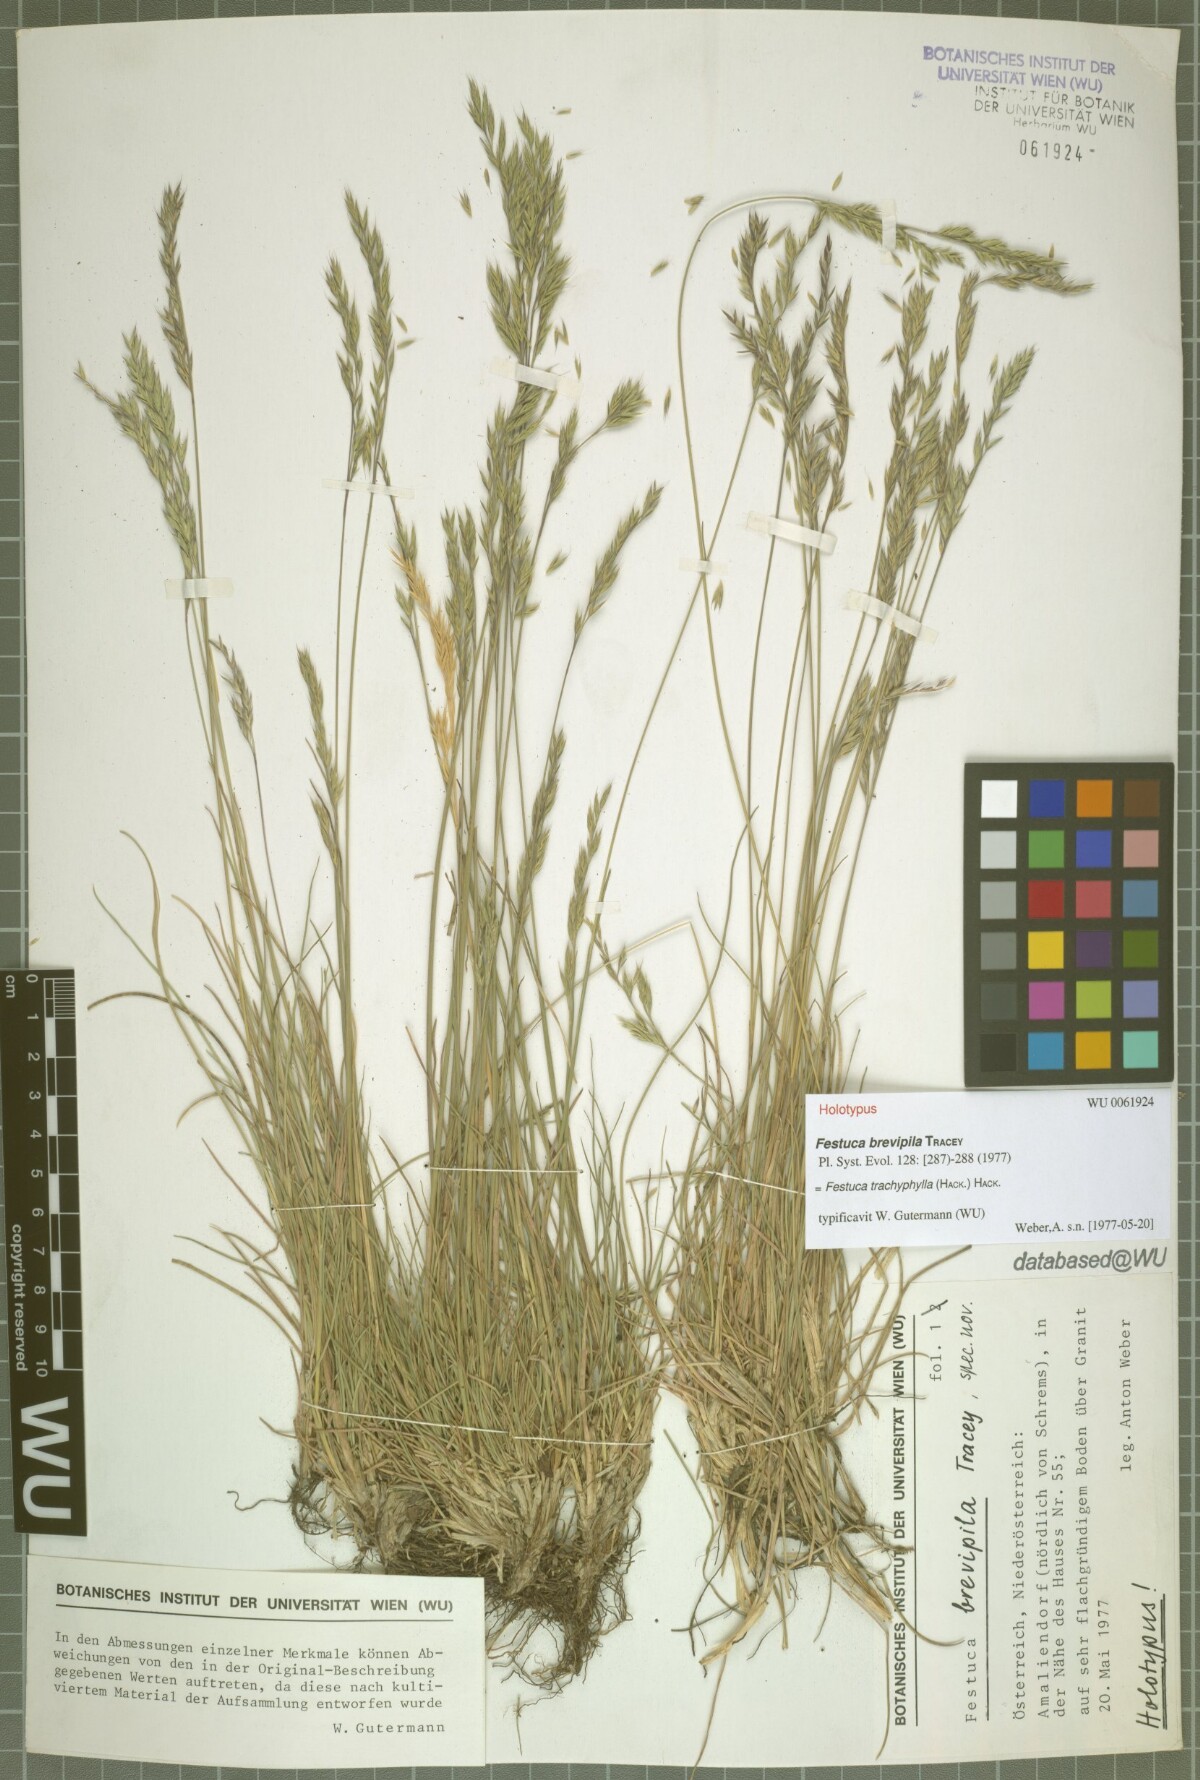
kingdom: Plantae
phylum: Tracheophyta
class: Liliopsida
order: Poales
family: Poaceae
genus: Festuca
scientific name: Festuca trachyphylla
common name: Hard fescue
